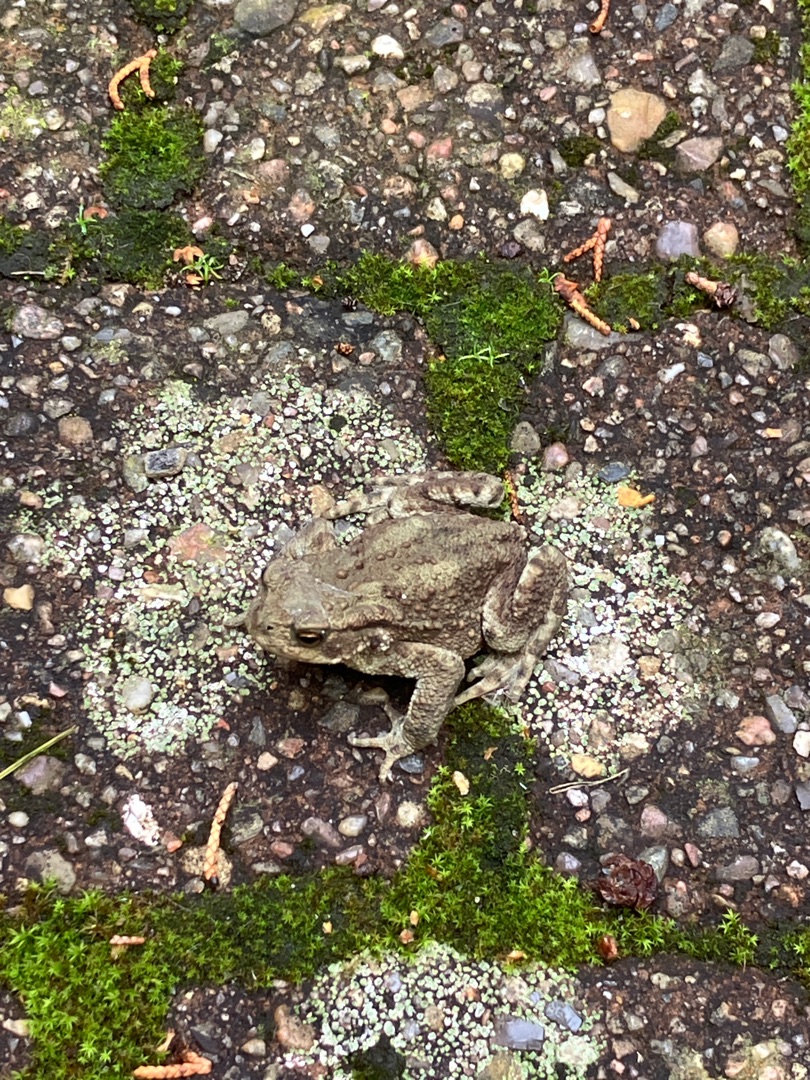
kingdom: Animalia
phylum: Chordata
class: Amphibia
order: Anura
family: Bufonidae
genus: Bufo
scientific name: Bufo bufo
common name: Skrubtudse
